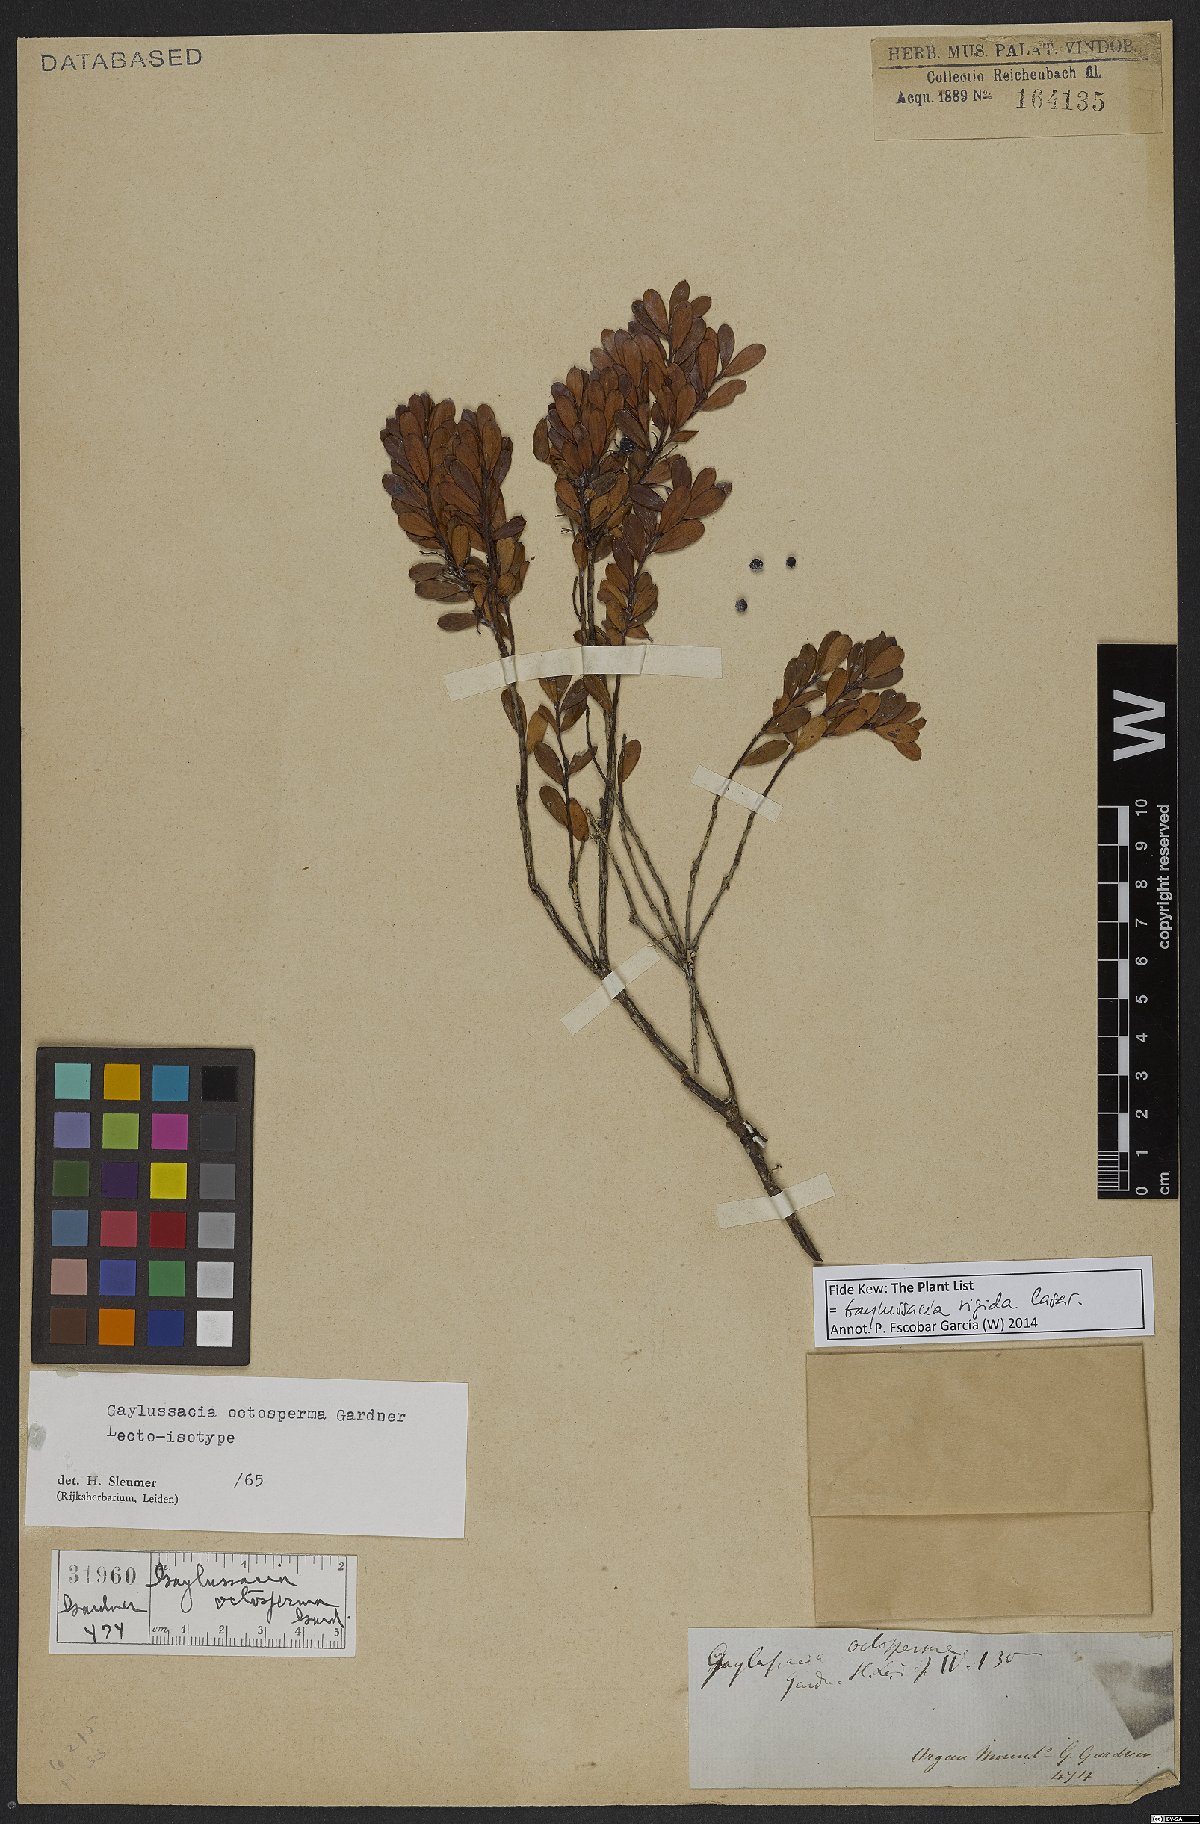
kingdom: Plantae
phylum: Tracheophyta
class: Magnoliopsida
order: Ericales
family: Ericaceae
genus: Gaylussacia
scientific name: Gaylussacia rigida
